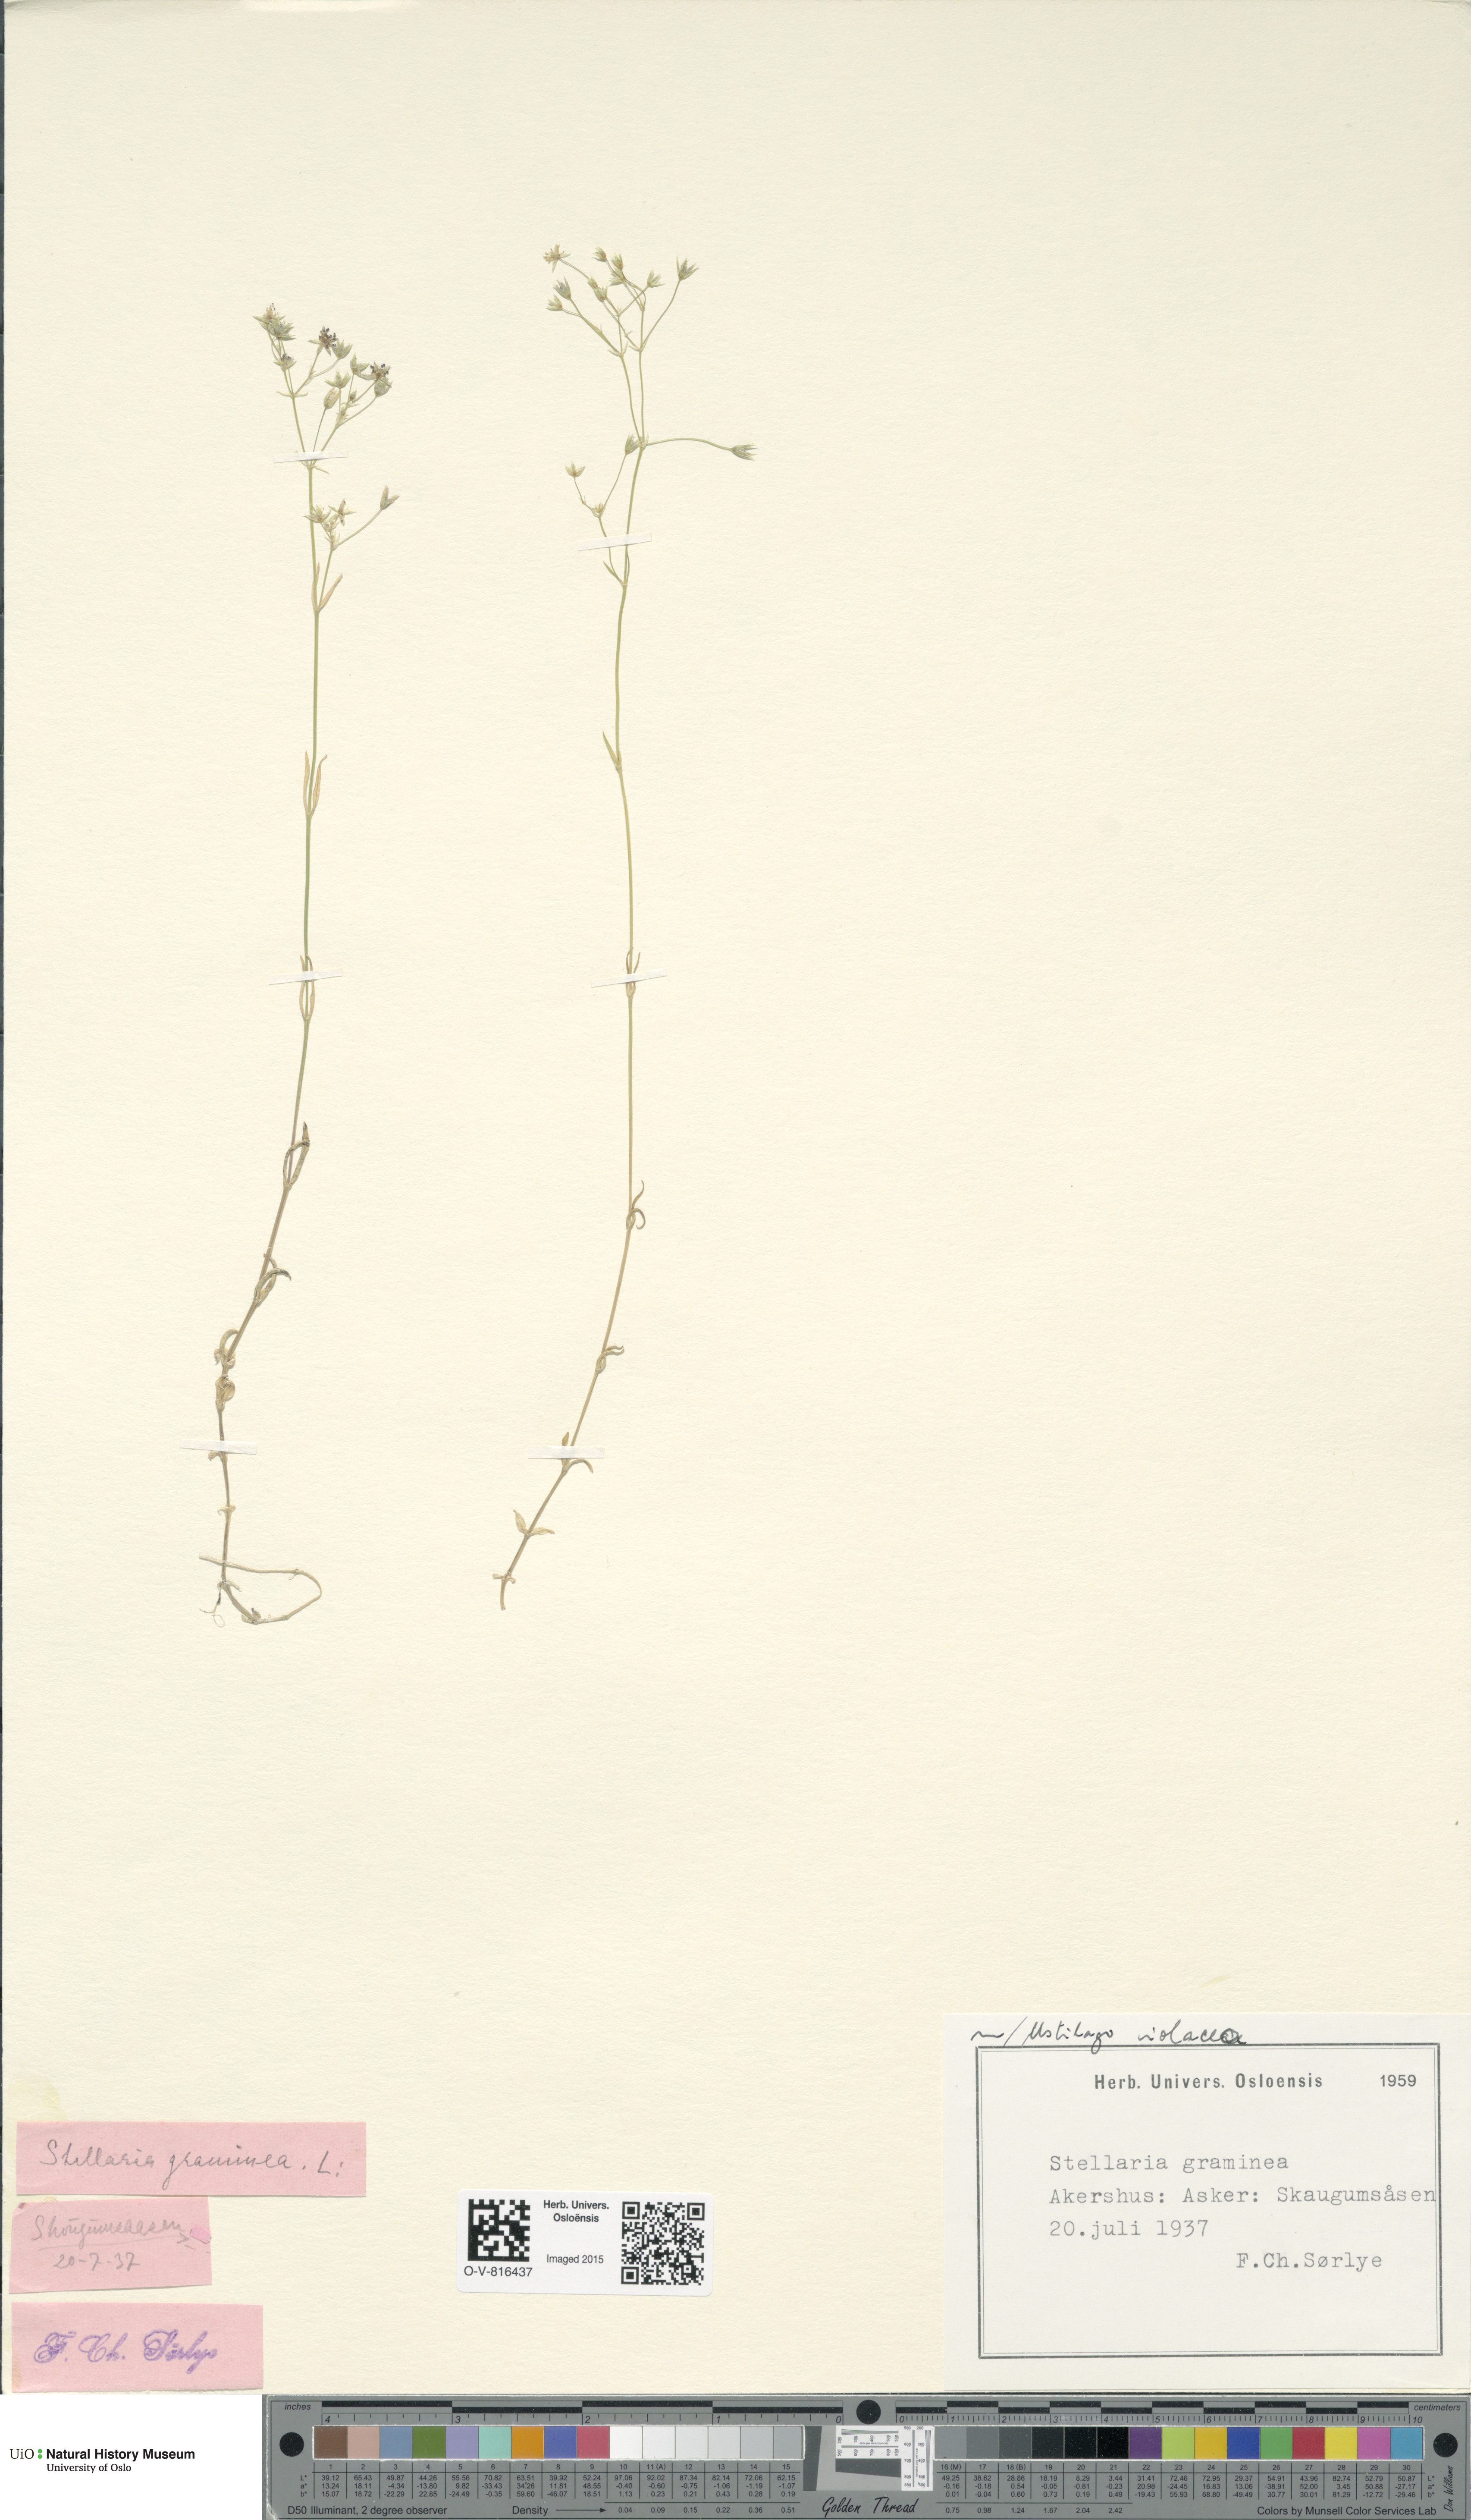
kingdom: Plantae
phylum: Tracheophyta
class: Magnoliopsida
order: Caryophyllales
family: Caryophyllaceae
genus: Stellaria
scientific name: Stellaria graminea
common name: Grass-like starwort
